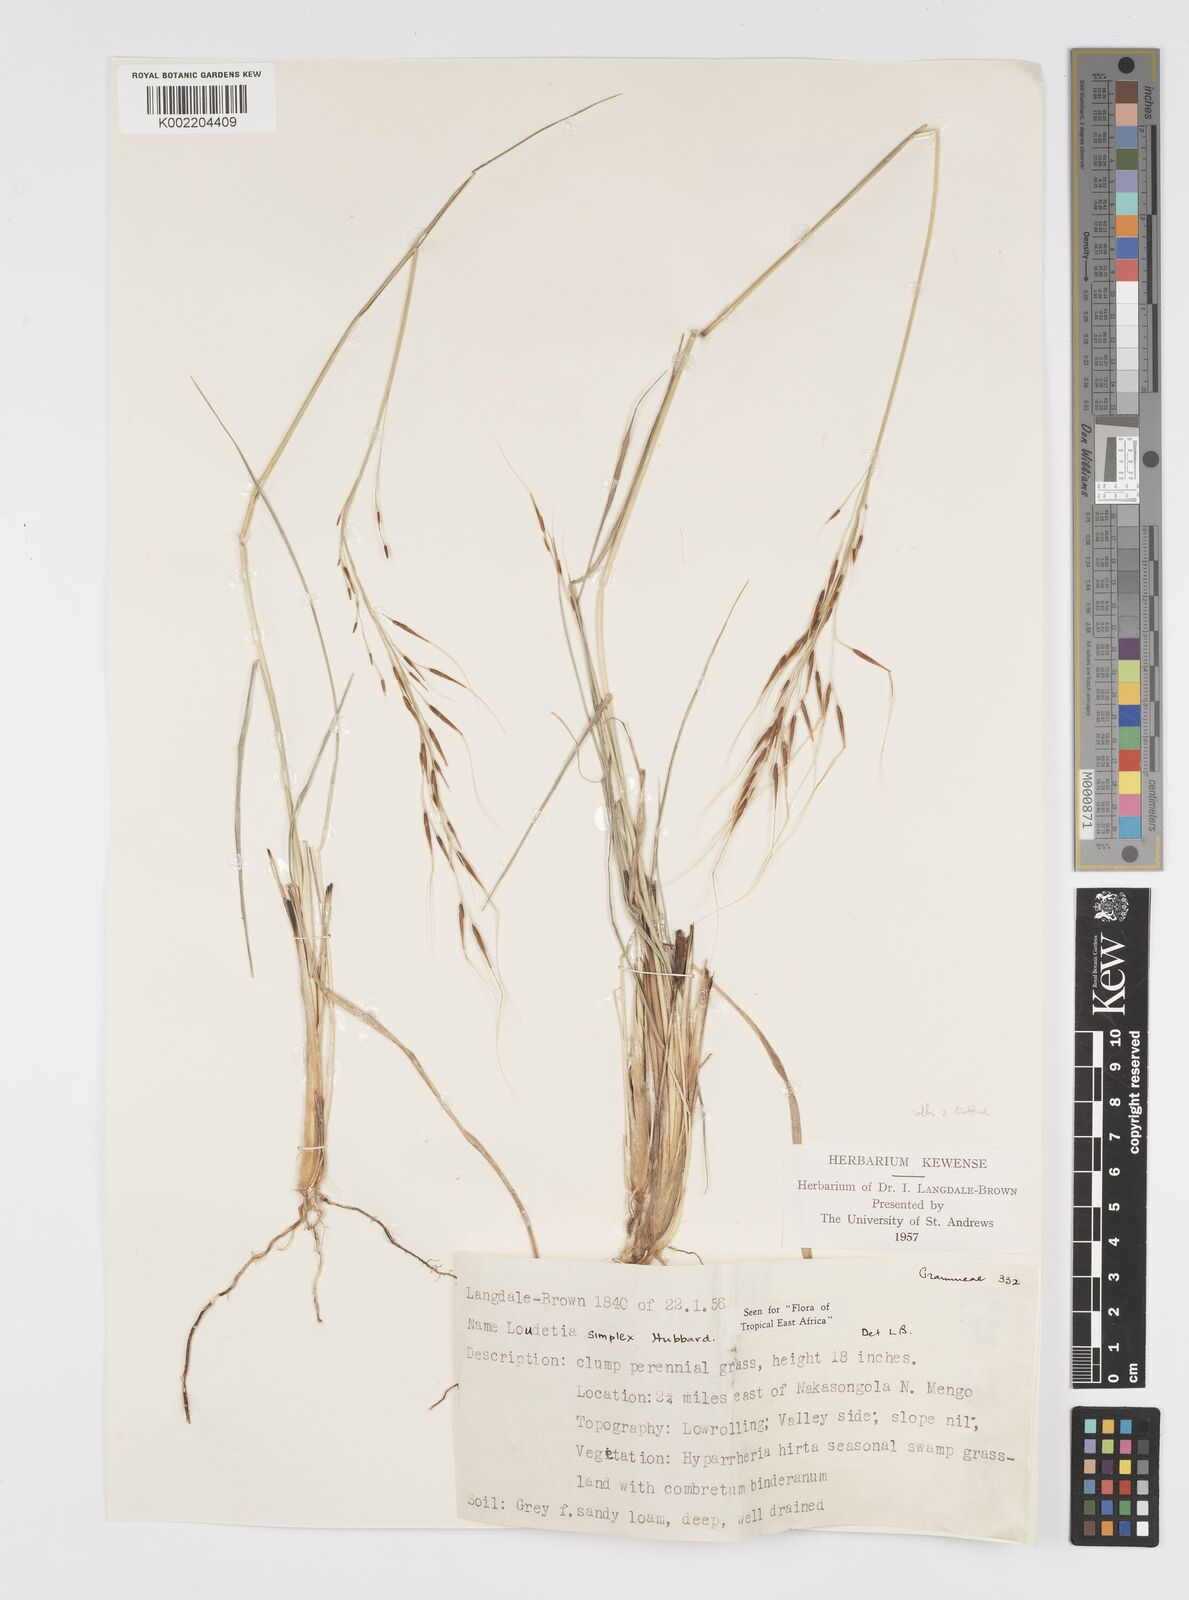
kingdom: Plantae
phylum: Tracheophyta
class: Liliopsida
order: Poales
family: Poaceae
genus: Loudetia
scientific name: Loudetia simplex
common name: Common russet grass
